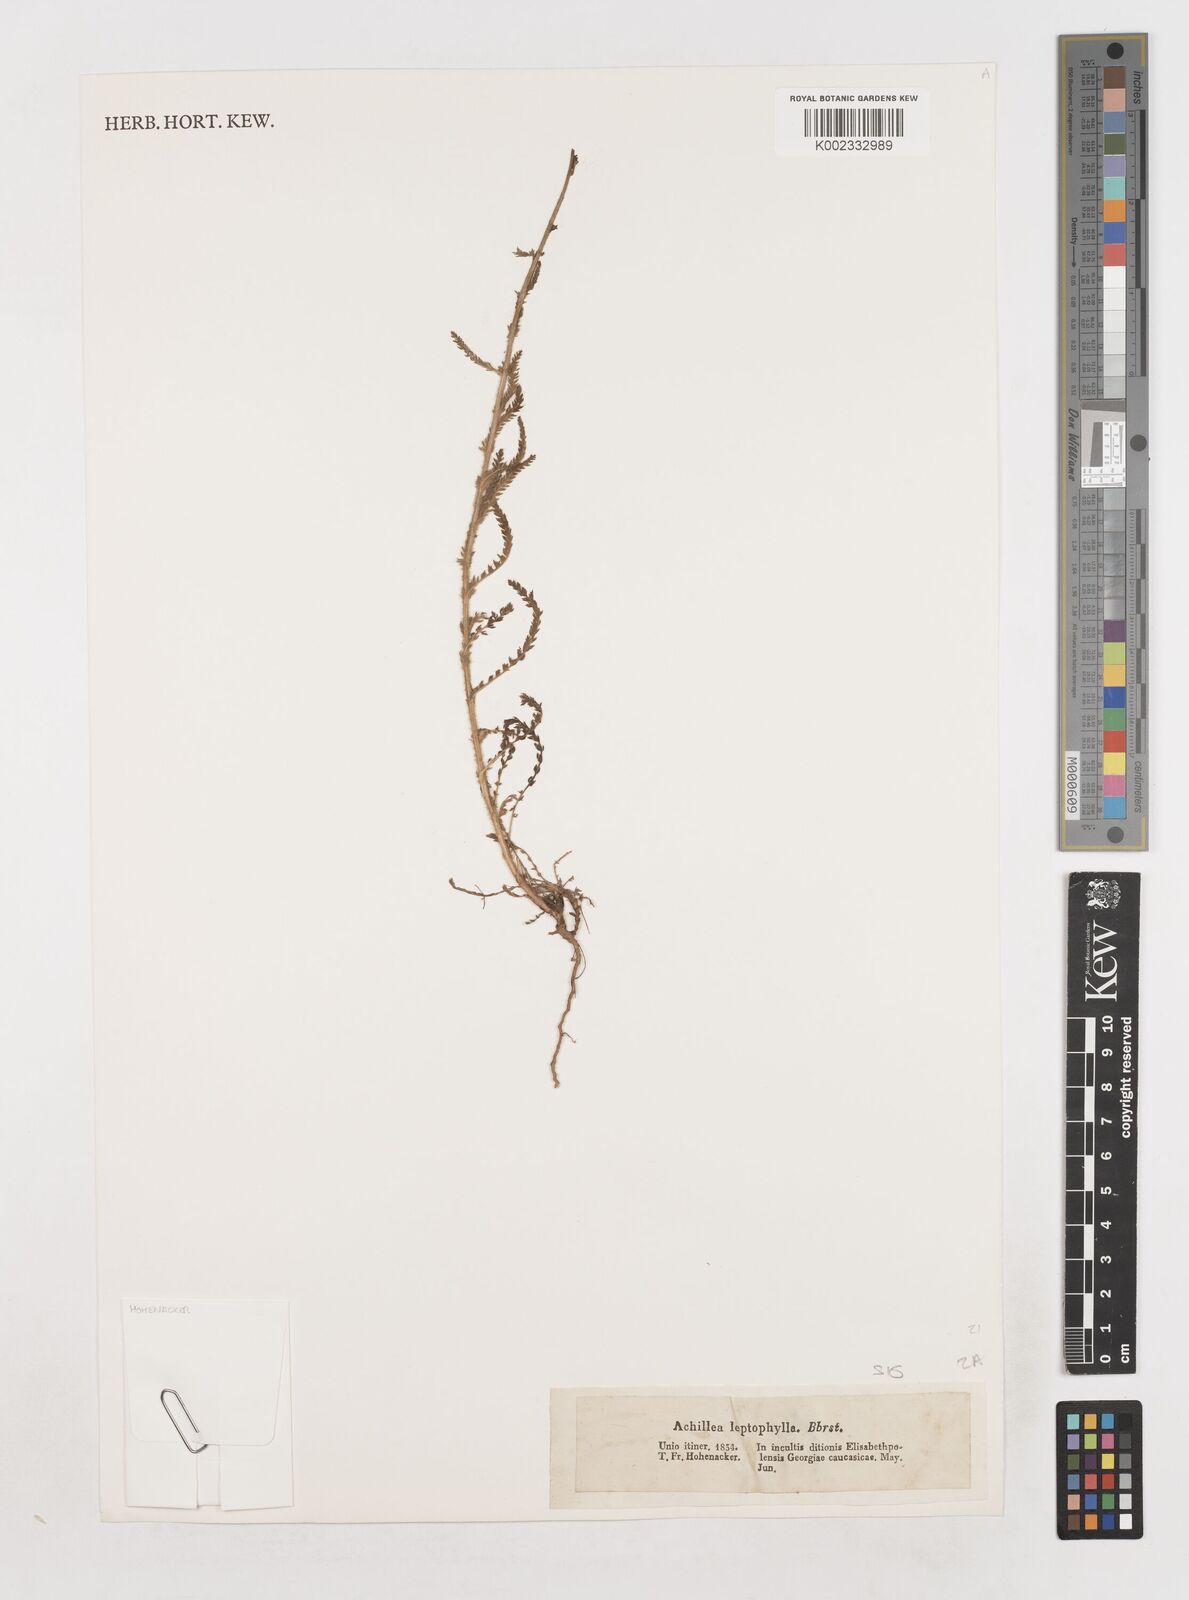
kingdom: Plantae
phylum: Tracheophyta
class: Magnoliopsida
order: Asterales
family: Asteraceae
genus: Achillea
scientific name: Achillea leptophylla
